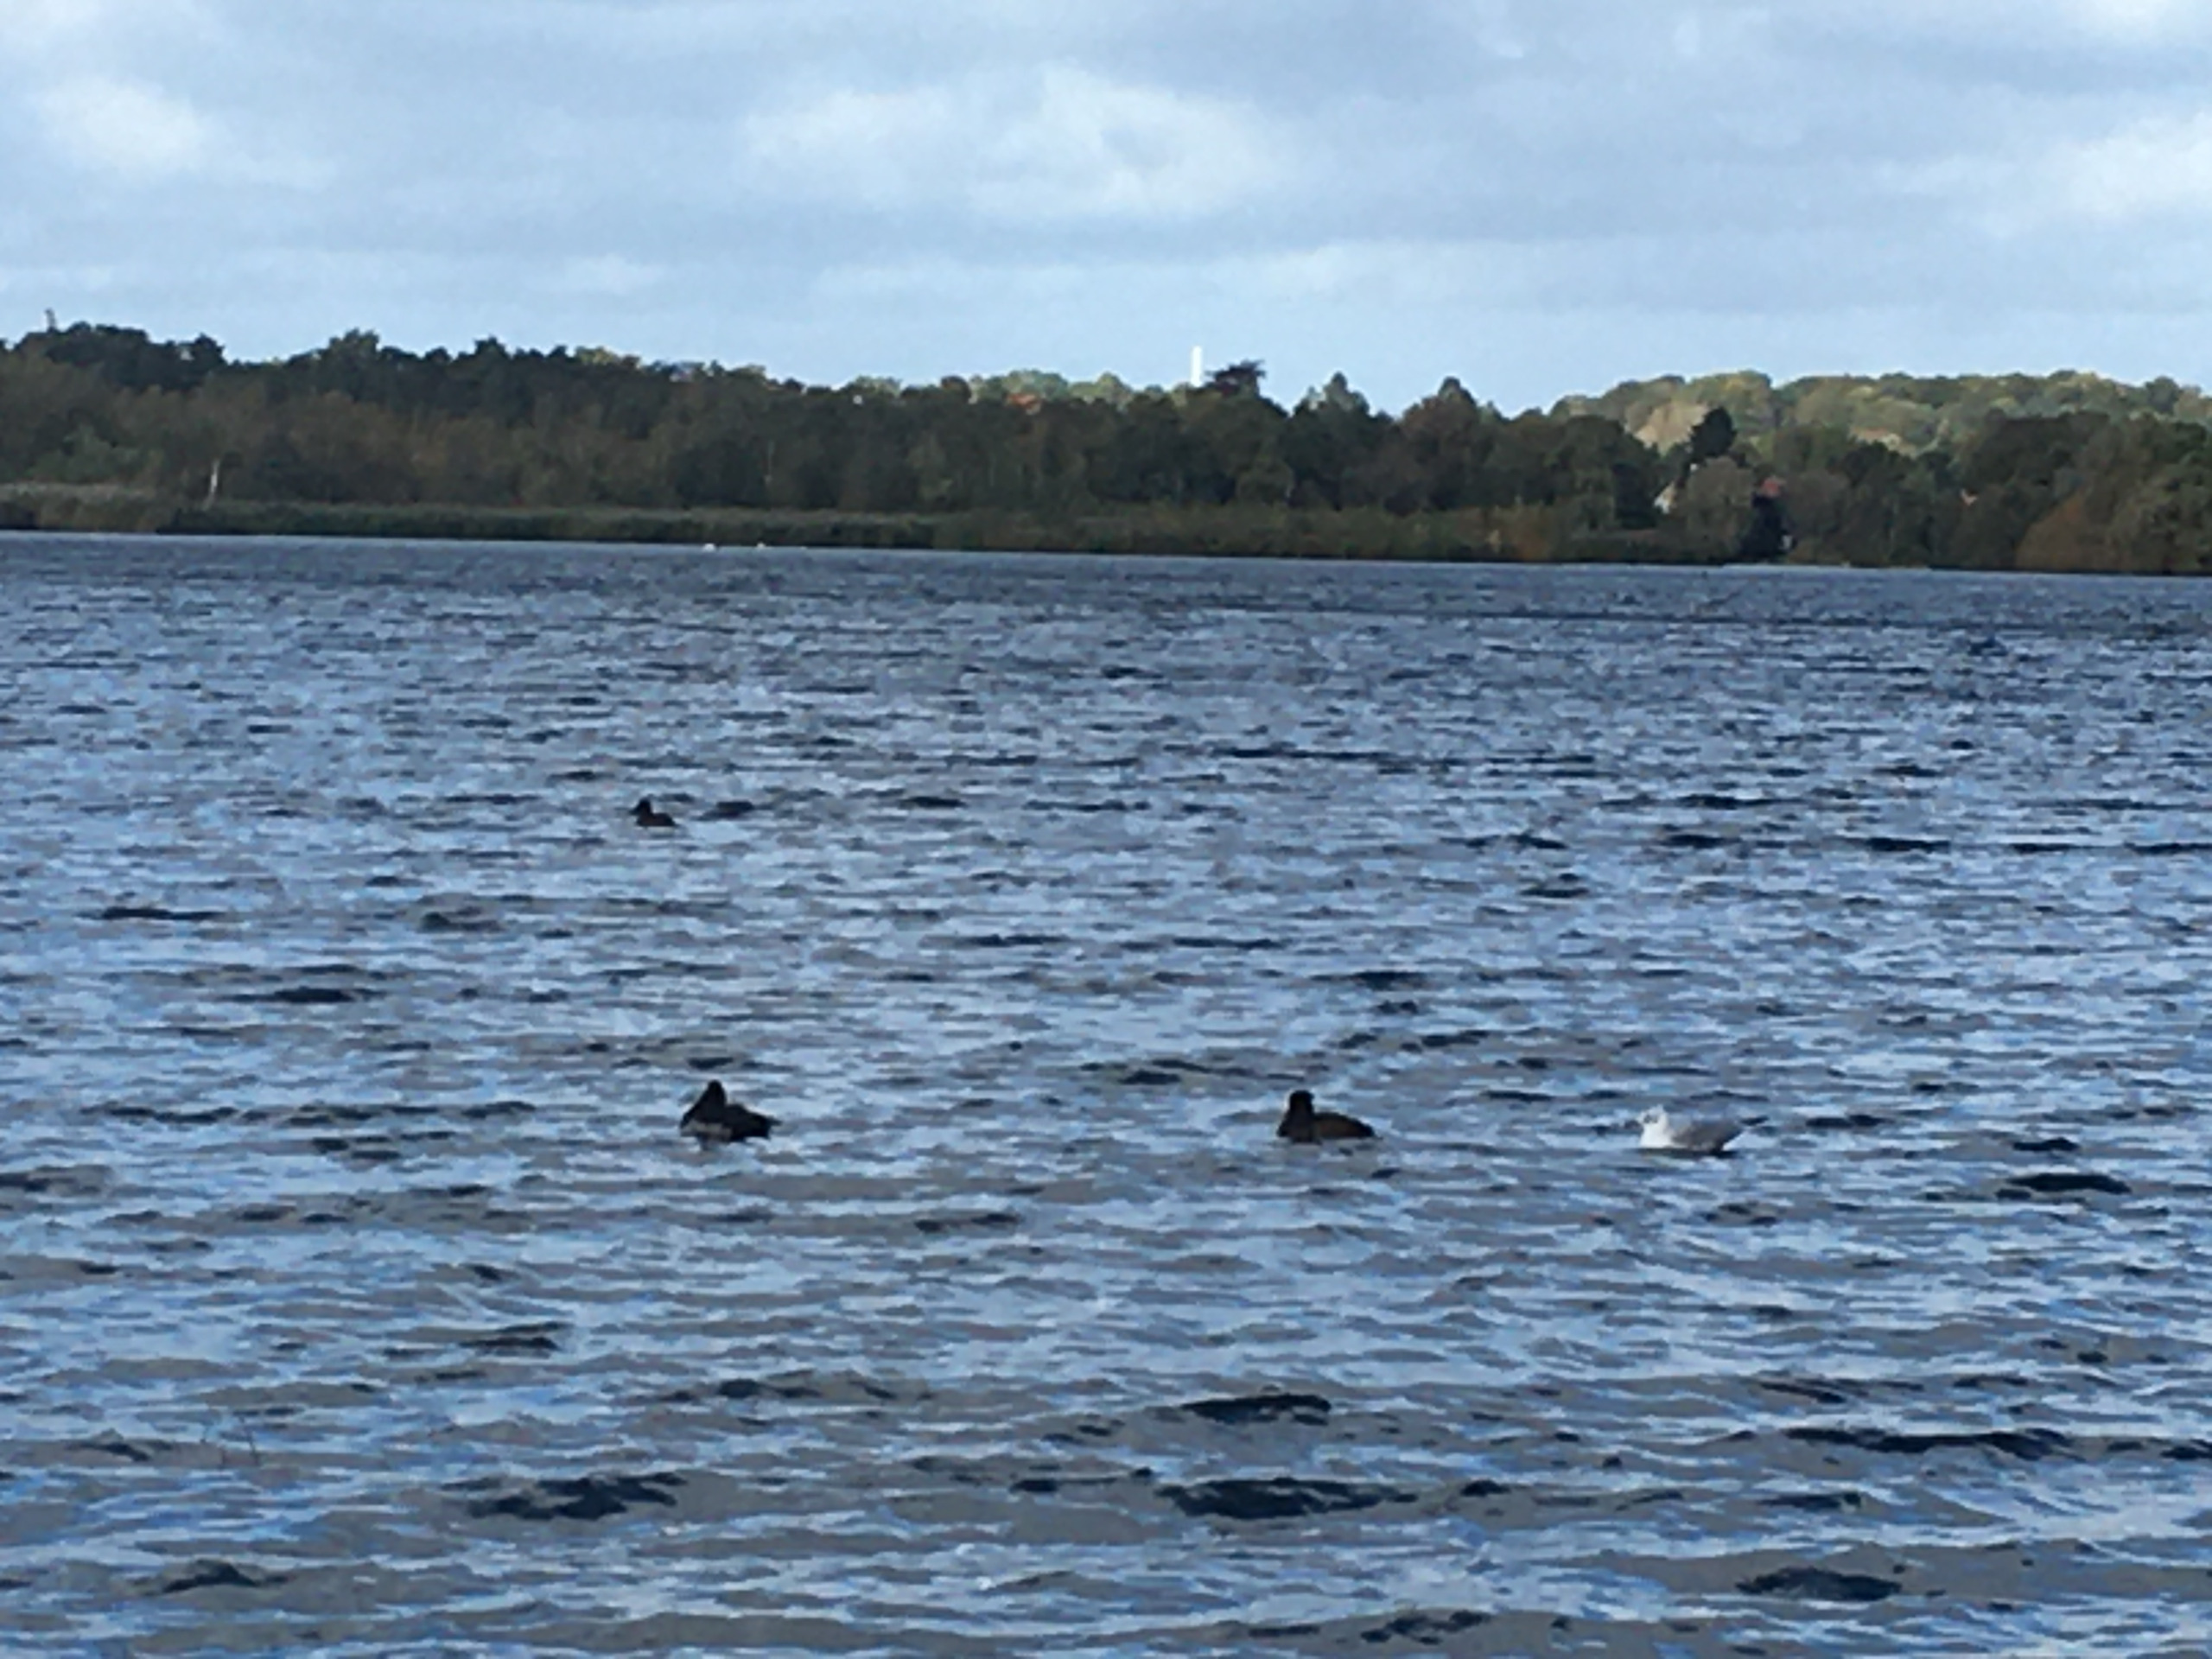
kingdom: Animalia
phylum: Chordata
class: Aves
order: Charadriiformes
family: Laridae
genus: Chroicocephalus
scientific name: Chroicocephalus ridibundus
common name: Hættemåge
